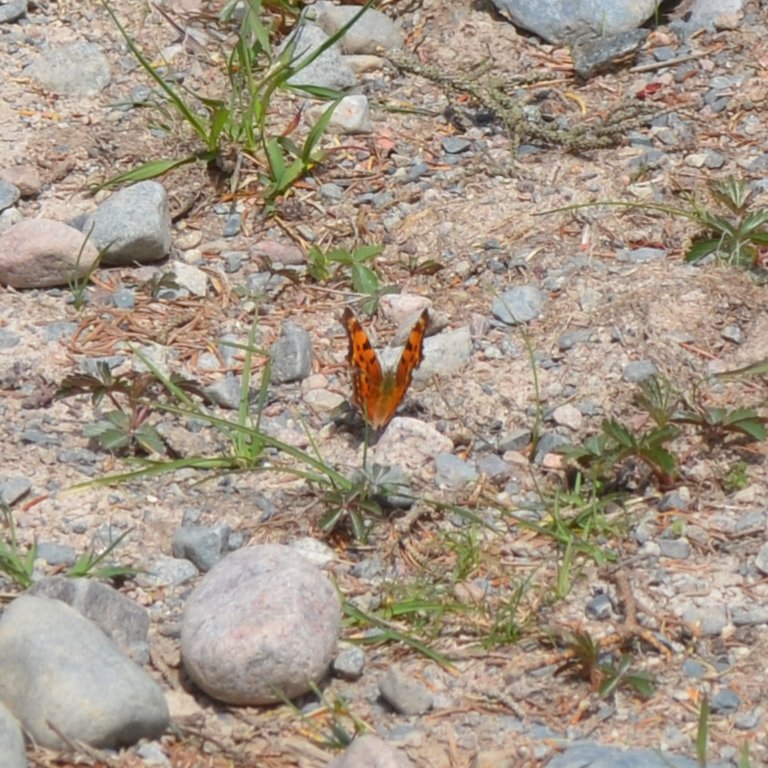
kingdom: Animalia
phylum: Arthropoda
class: Insecta
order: Lepidoptera
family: Nymphalidae
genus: Polygonia
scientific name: Polygonia faunus
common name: Green Comma
